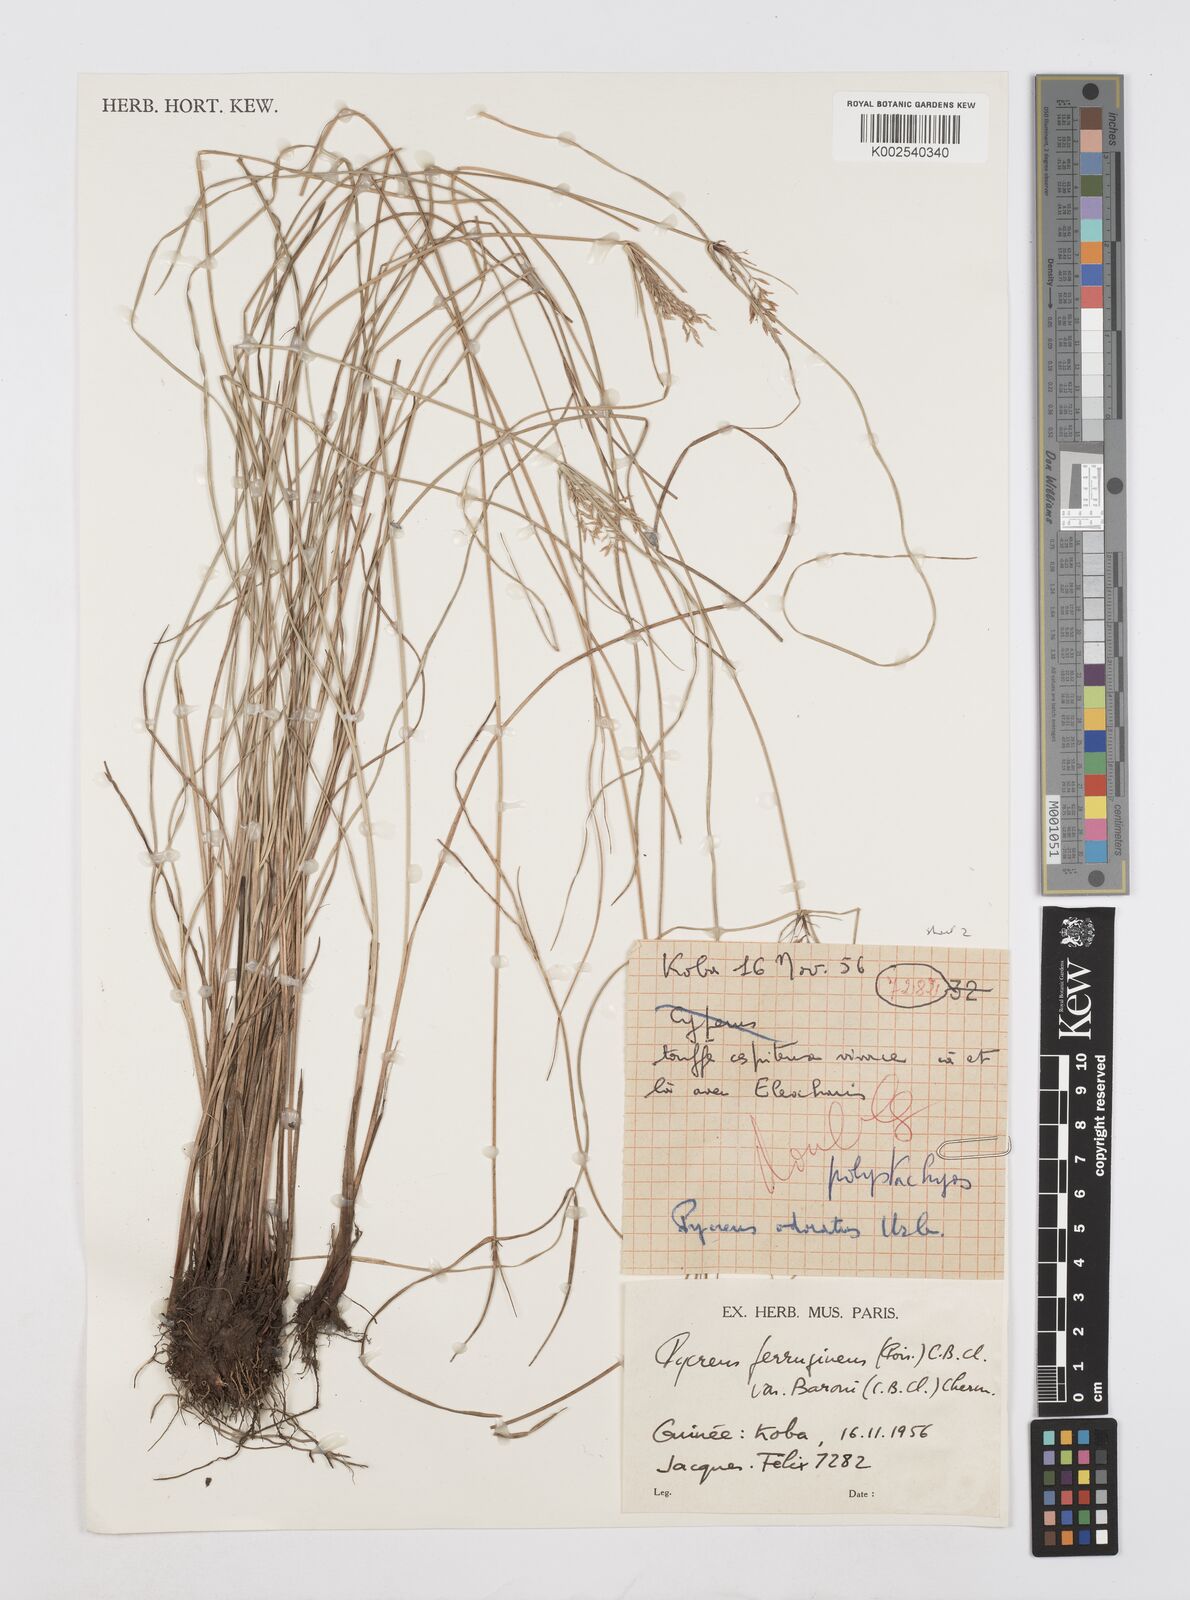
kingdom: Plantae
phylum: Tracheophyta
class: Liliopsida
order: Poales
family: Cyperaceae
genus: Cyperus
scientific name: Cyperus intactus
